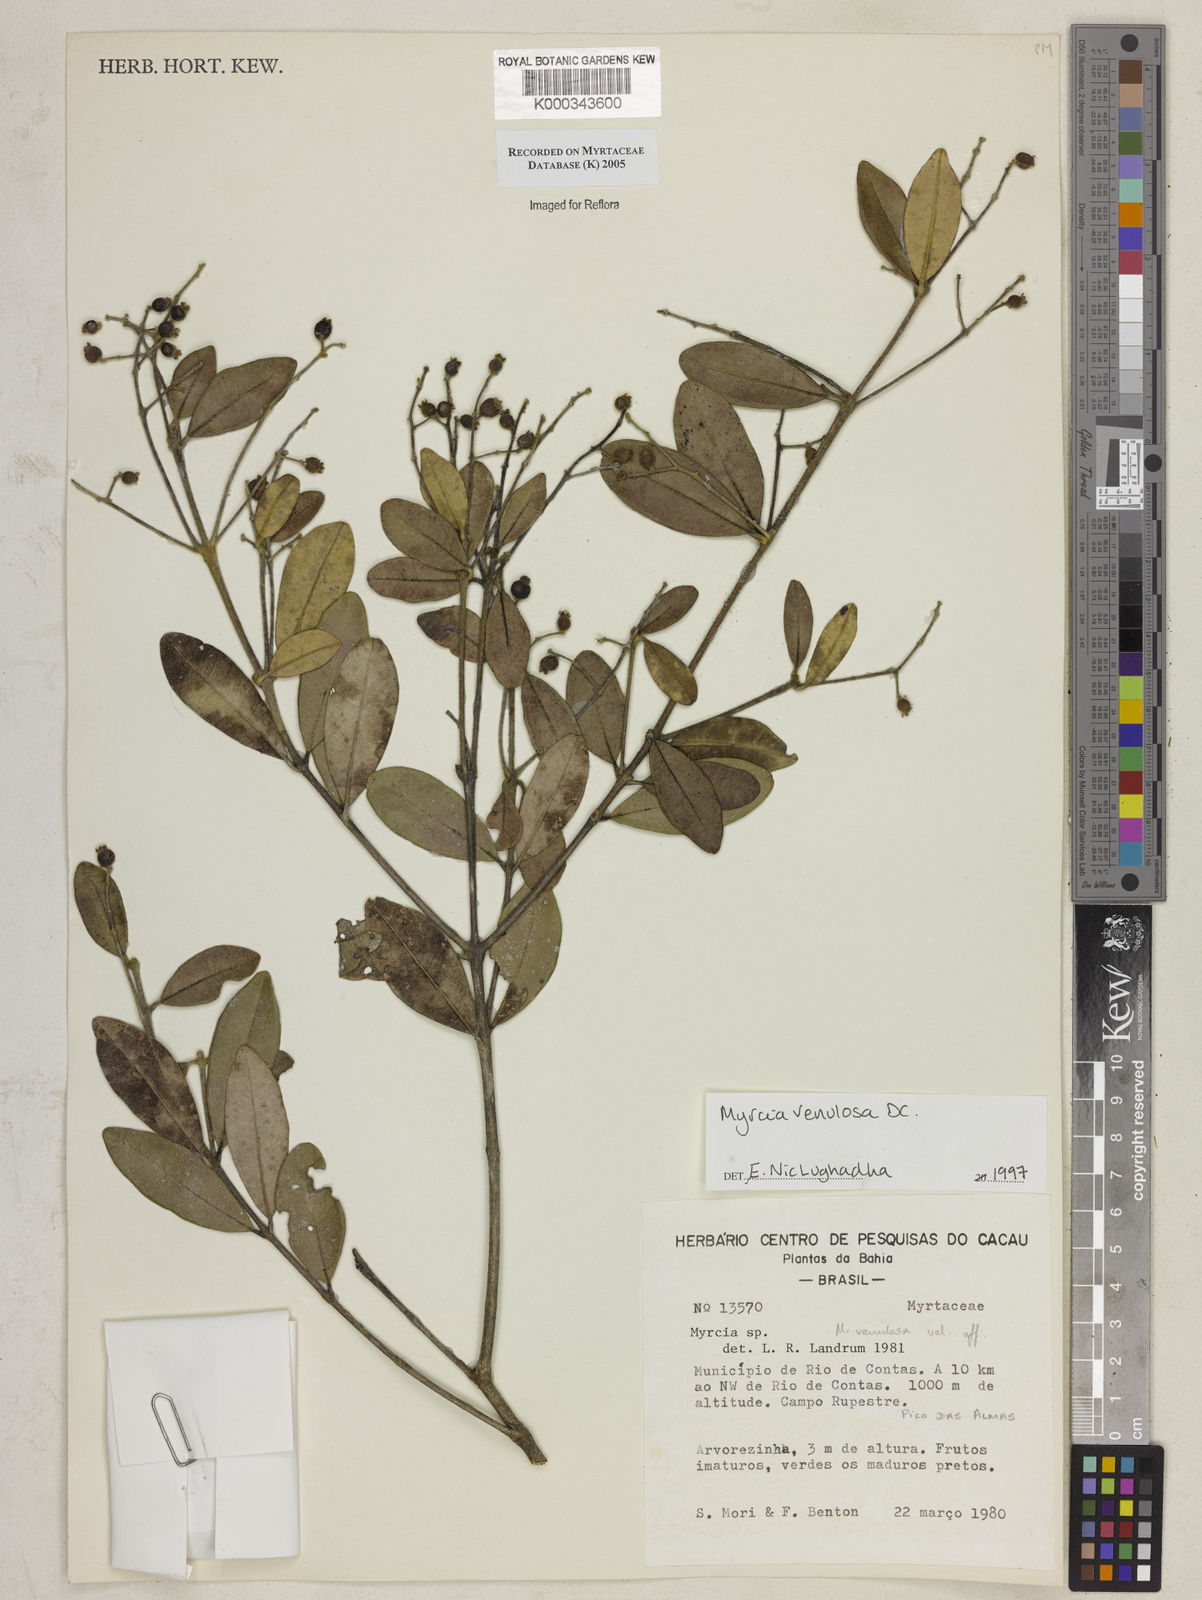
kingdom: Plantae
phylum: Tracheophyta
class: Magnoliopsida
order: Myrtales
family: Myrtaceae
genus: Myrcia
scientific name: Myrcia venulosa
